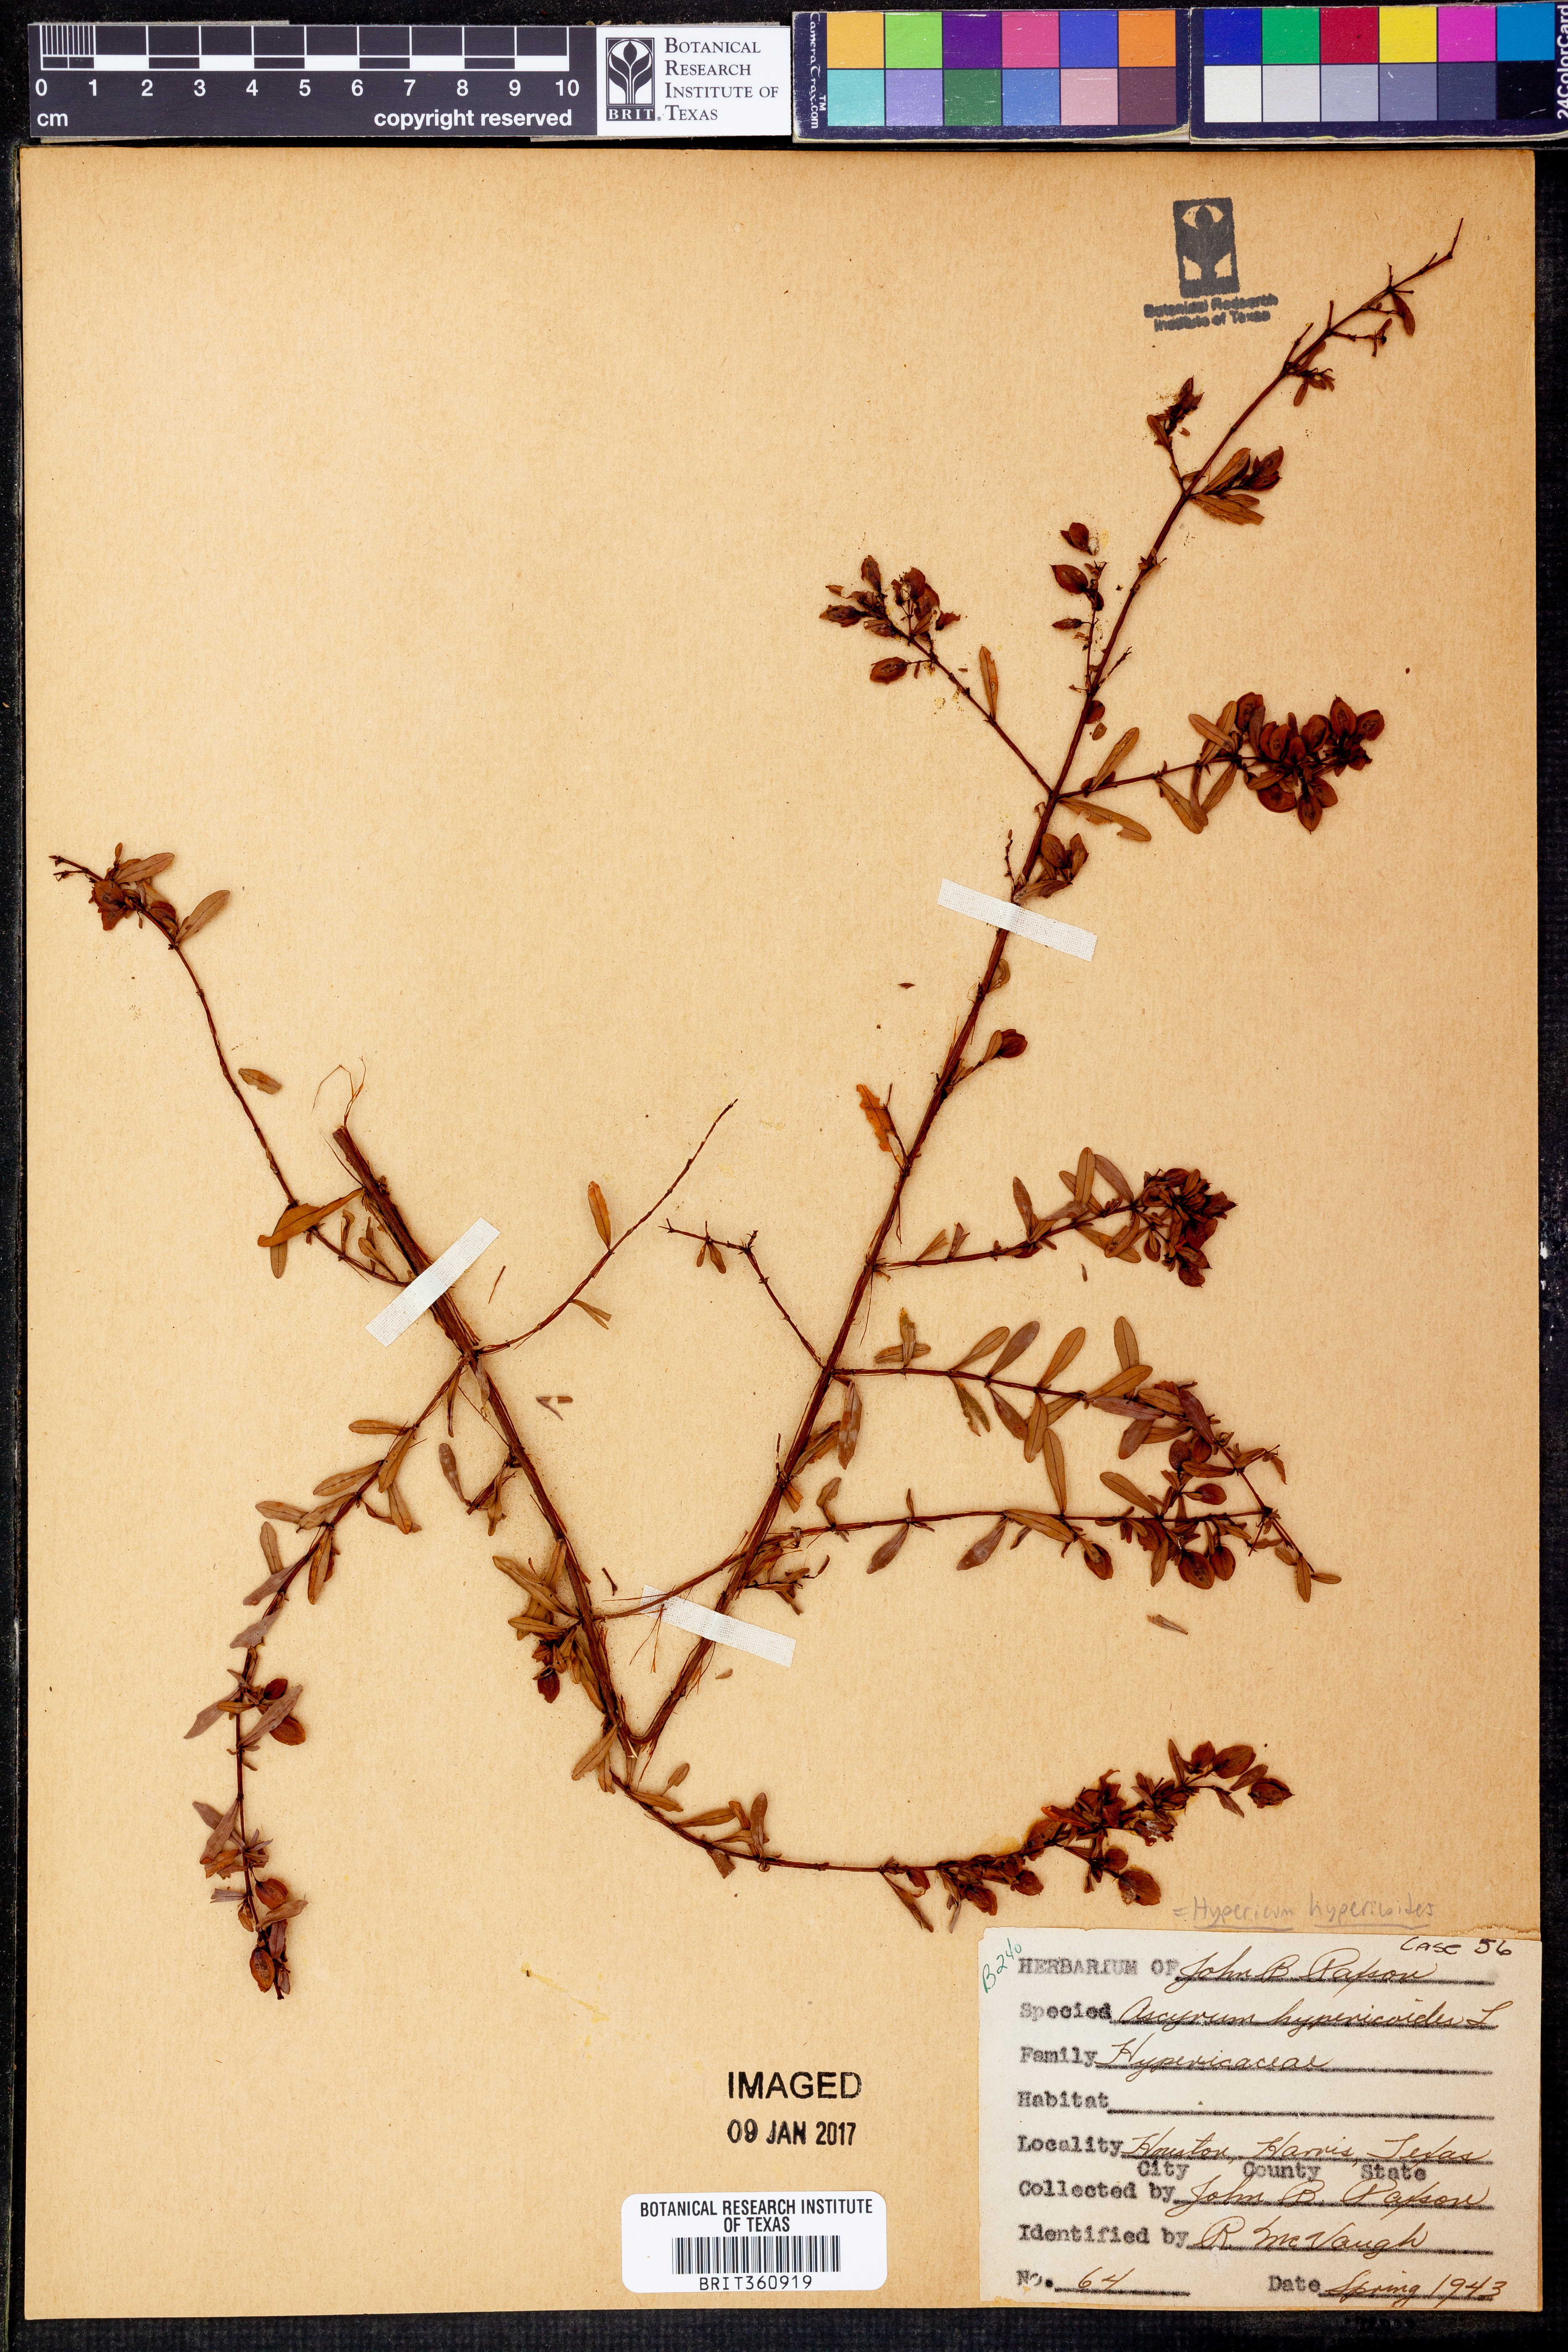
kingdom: Plantae
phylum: Tracheophyta
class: Magnoliopsida
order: Malpighiales
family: Hypericaceae
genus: Hypericum
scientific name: Hypericum hypericoides
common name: St. andrew's cross
